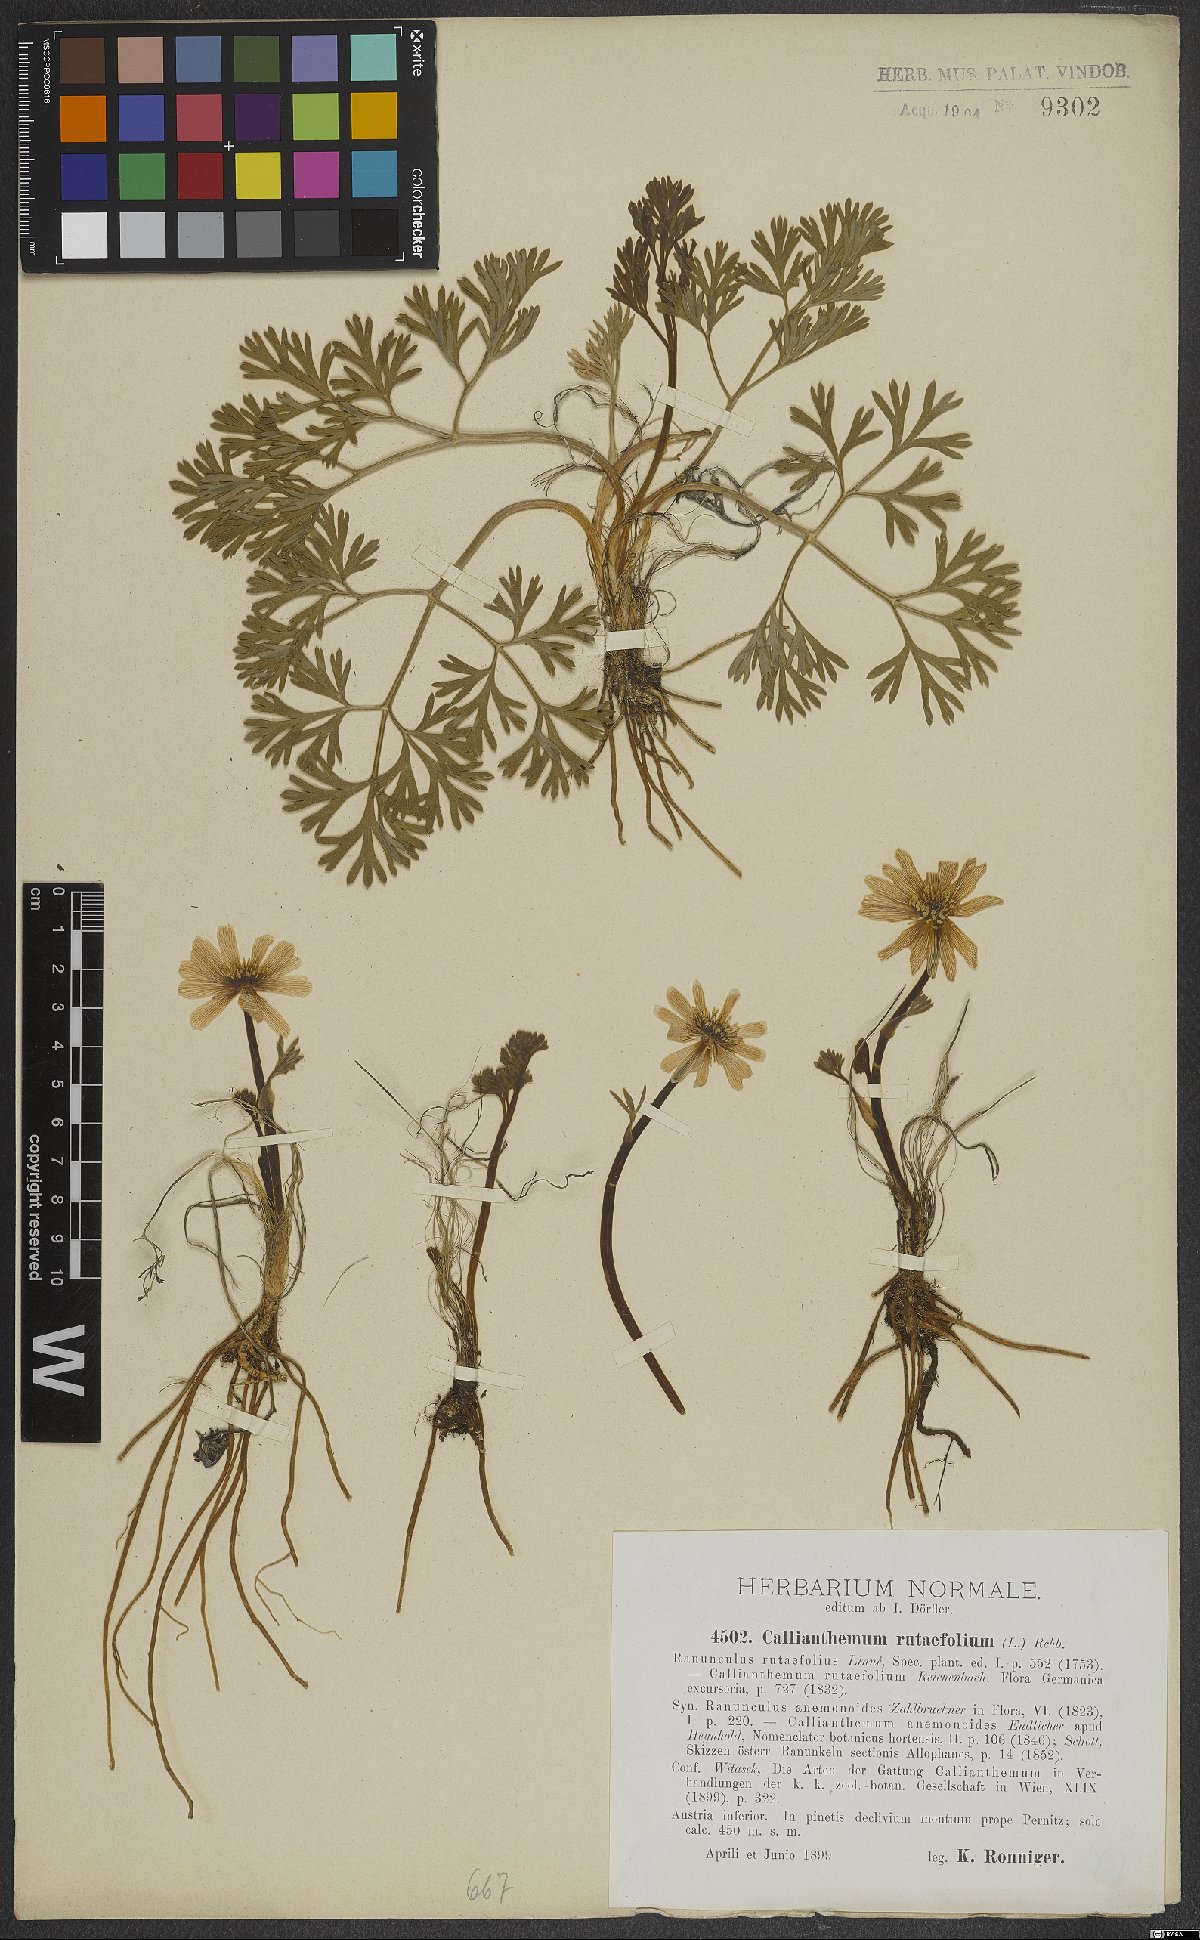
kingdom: Plantae
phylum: Tracheophyta
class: Magnoliopsida
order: Ranunculales
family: Ranunculaceae
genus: Callianthemum
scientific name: Callianthemum anemonoides
